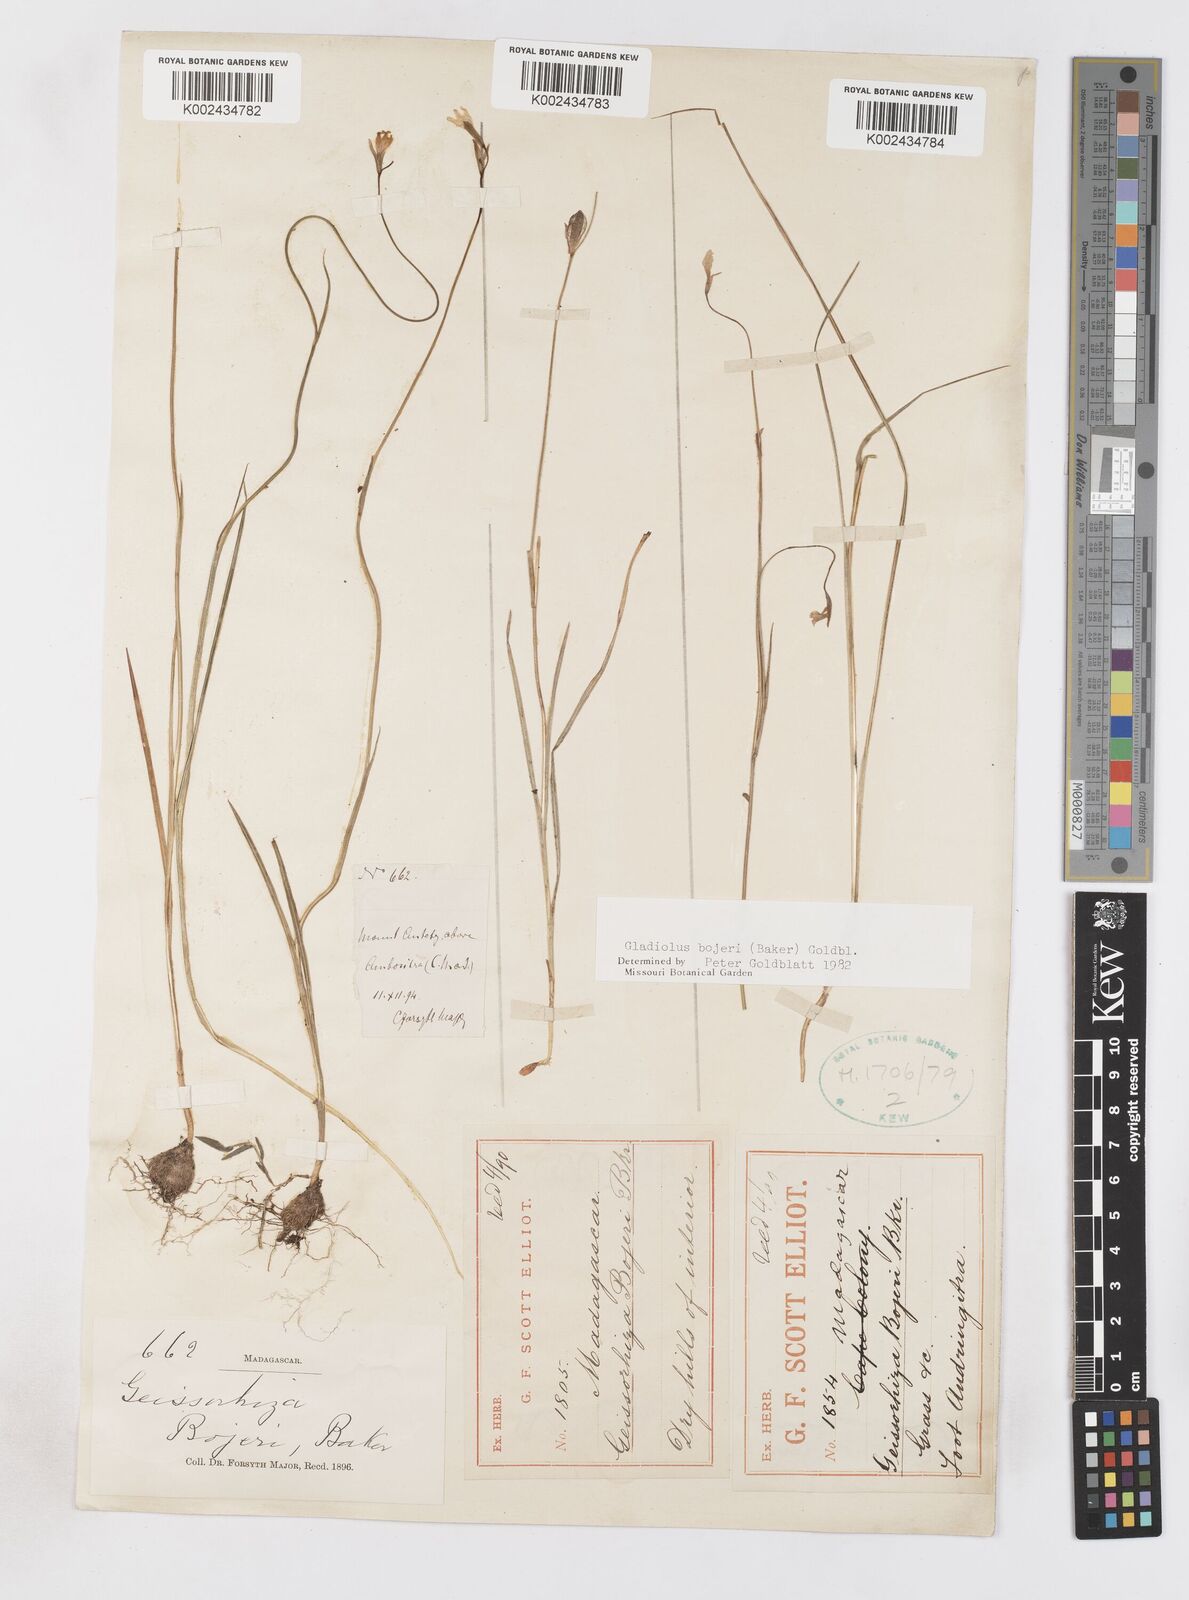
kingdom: Plantae
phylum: Tracheophyta
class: Liliopsida
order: Asparagales
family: Iridaceae
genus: Gladiolus
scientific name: Gladiolus bojeri
